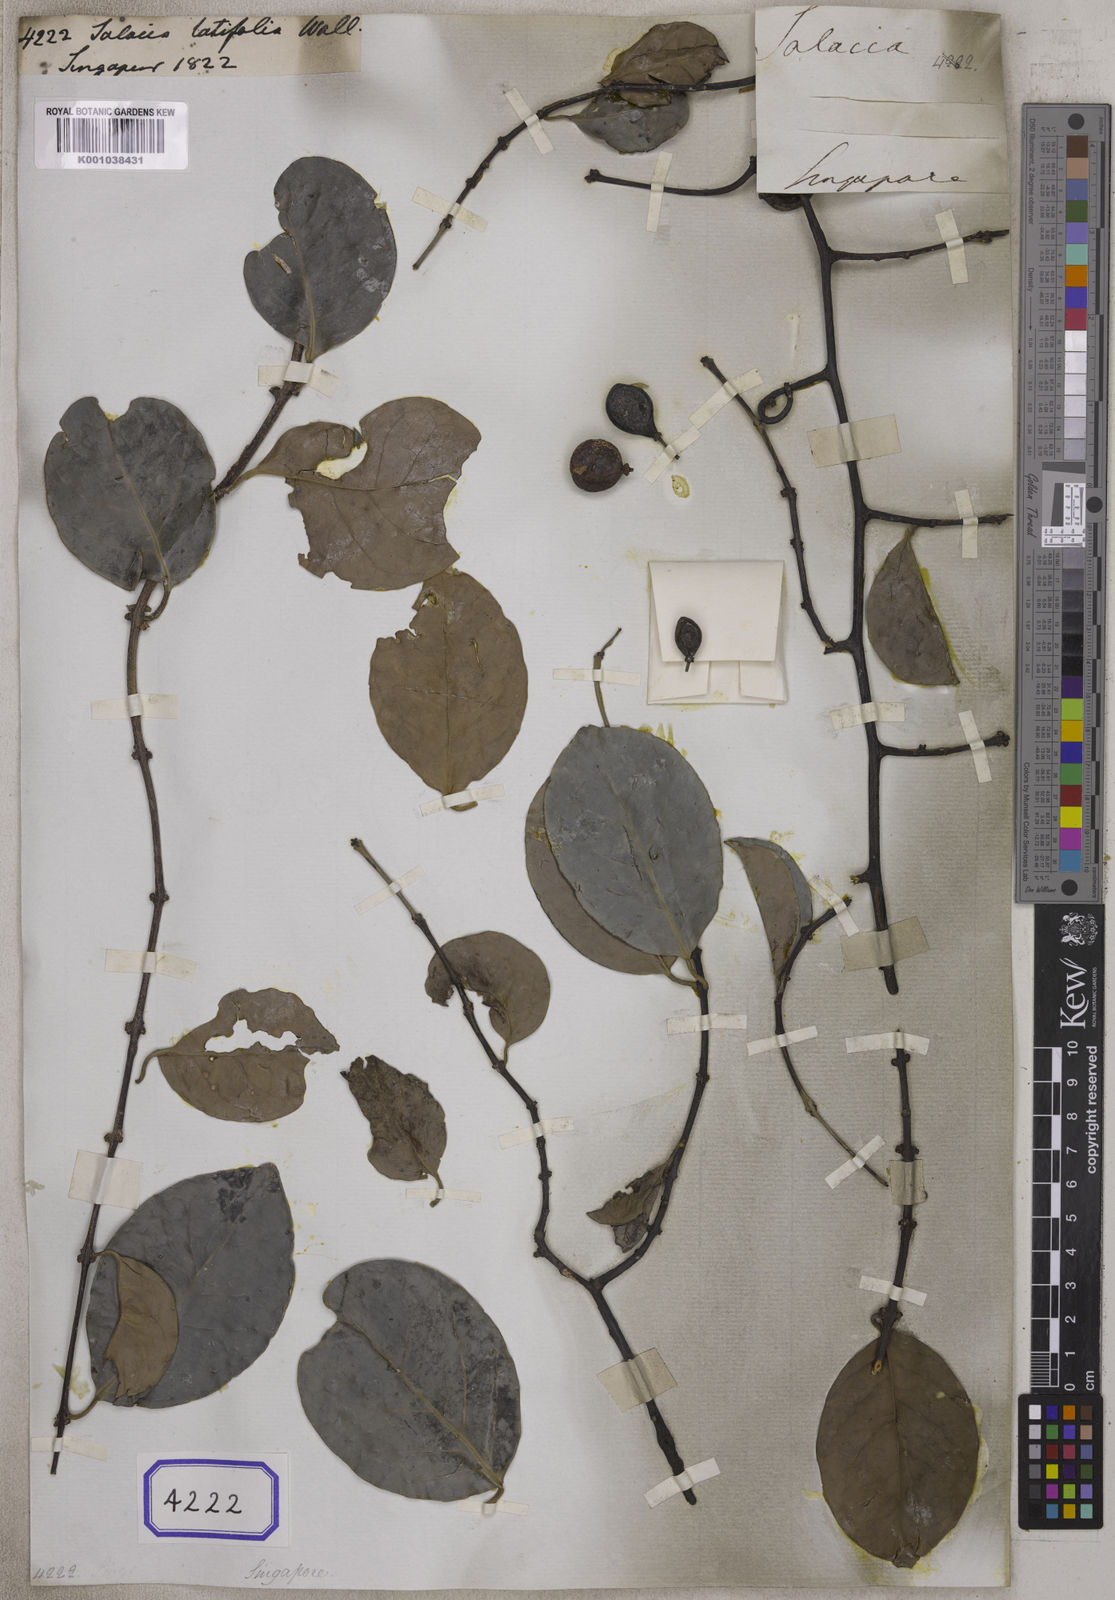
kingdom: Plantae
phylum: Tracheophyta
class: Magnoliopsida
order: Celastrales
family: Celastraceae
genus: Salacia
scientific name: Salacia
